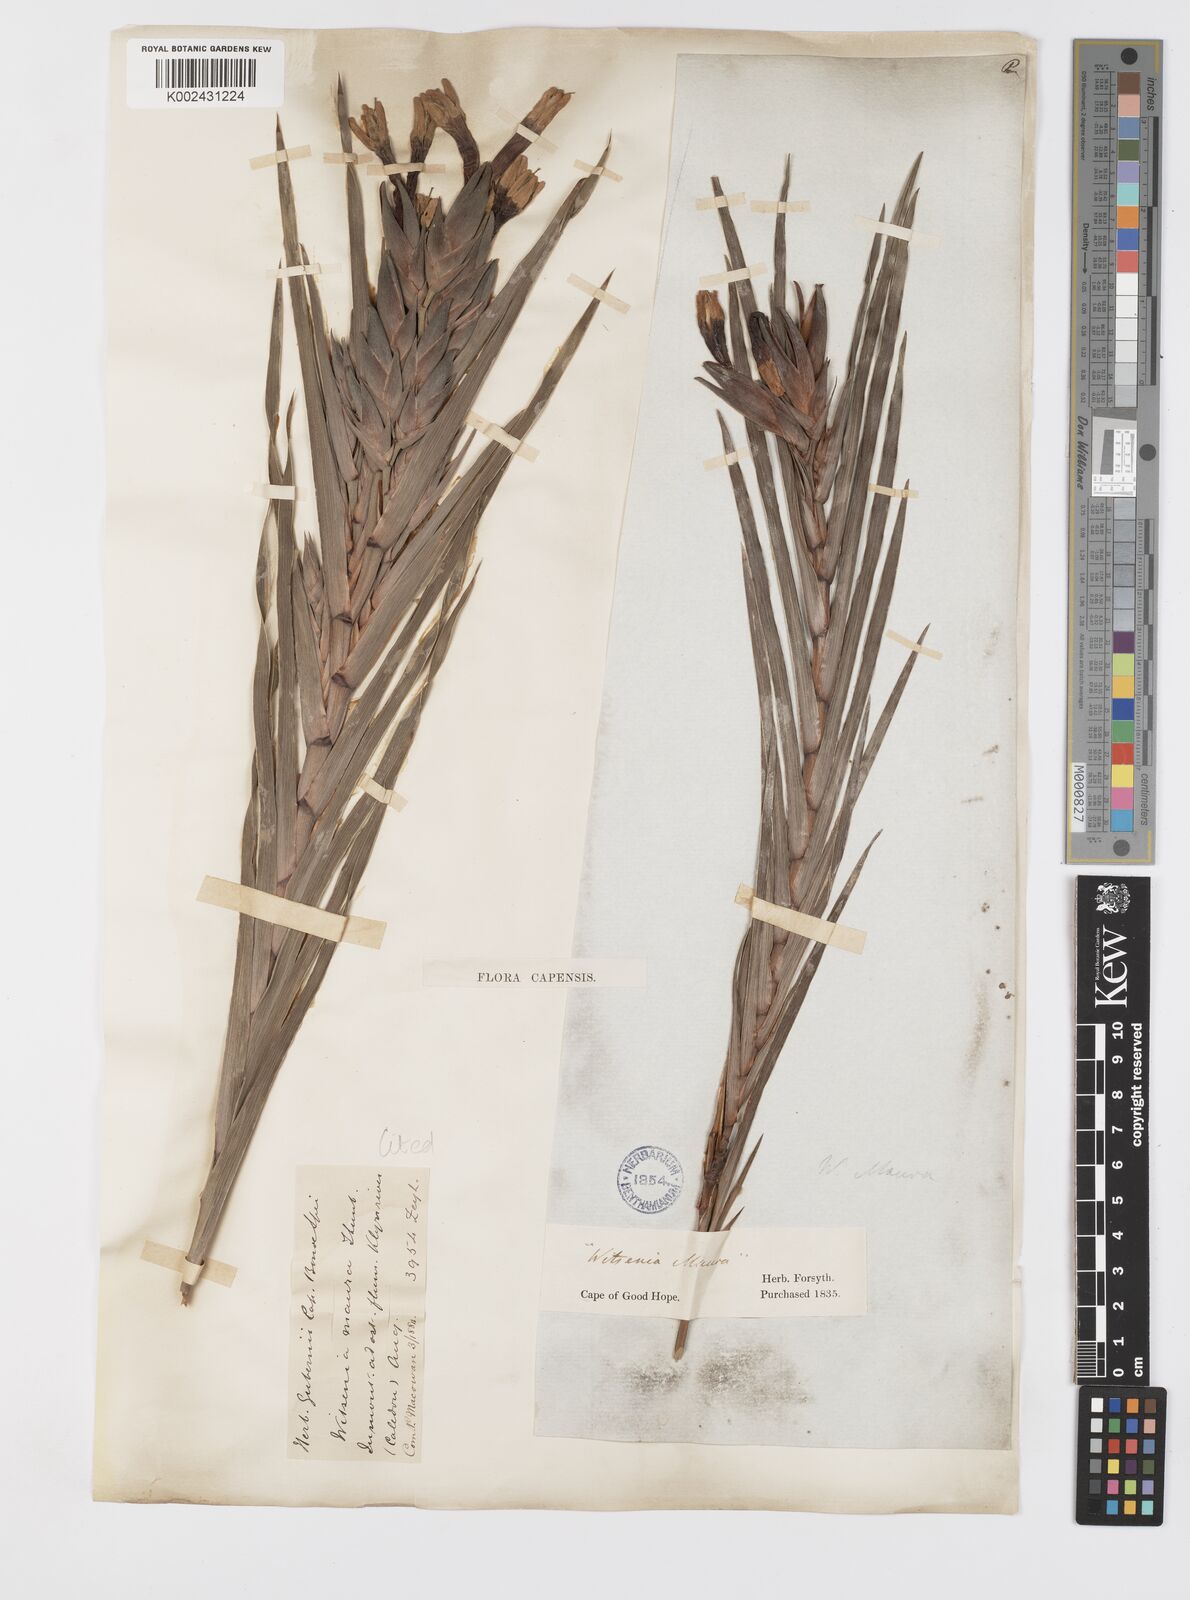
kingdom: Plantae
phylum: Tracheophyta
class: Liliopsida
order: Asparagales
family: Iridaceae
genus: Witsenia
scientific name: Witsenia maura
